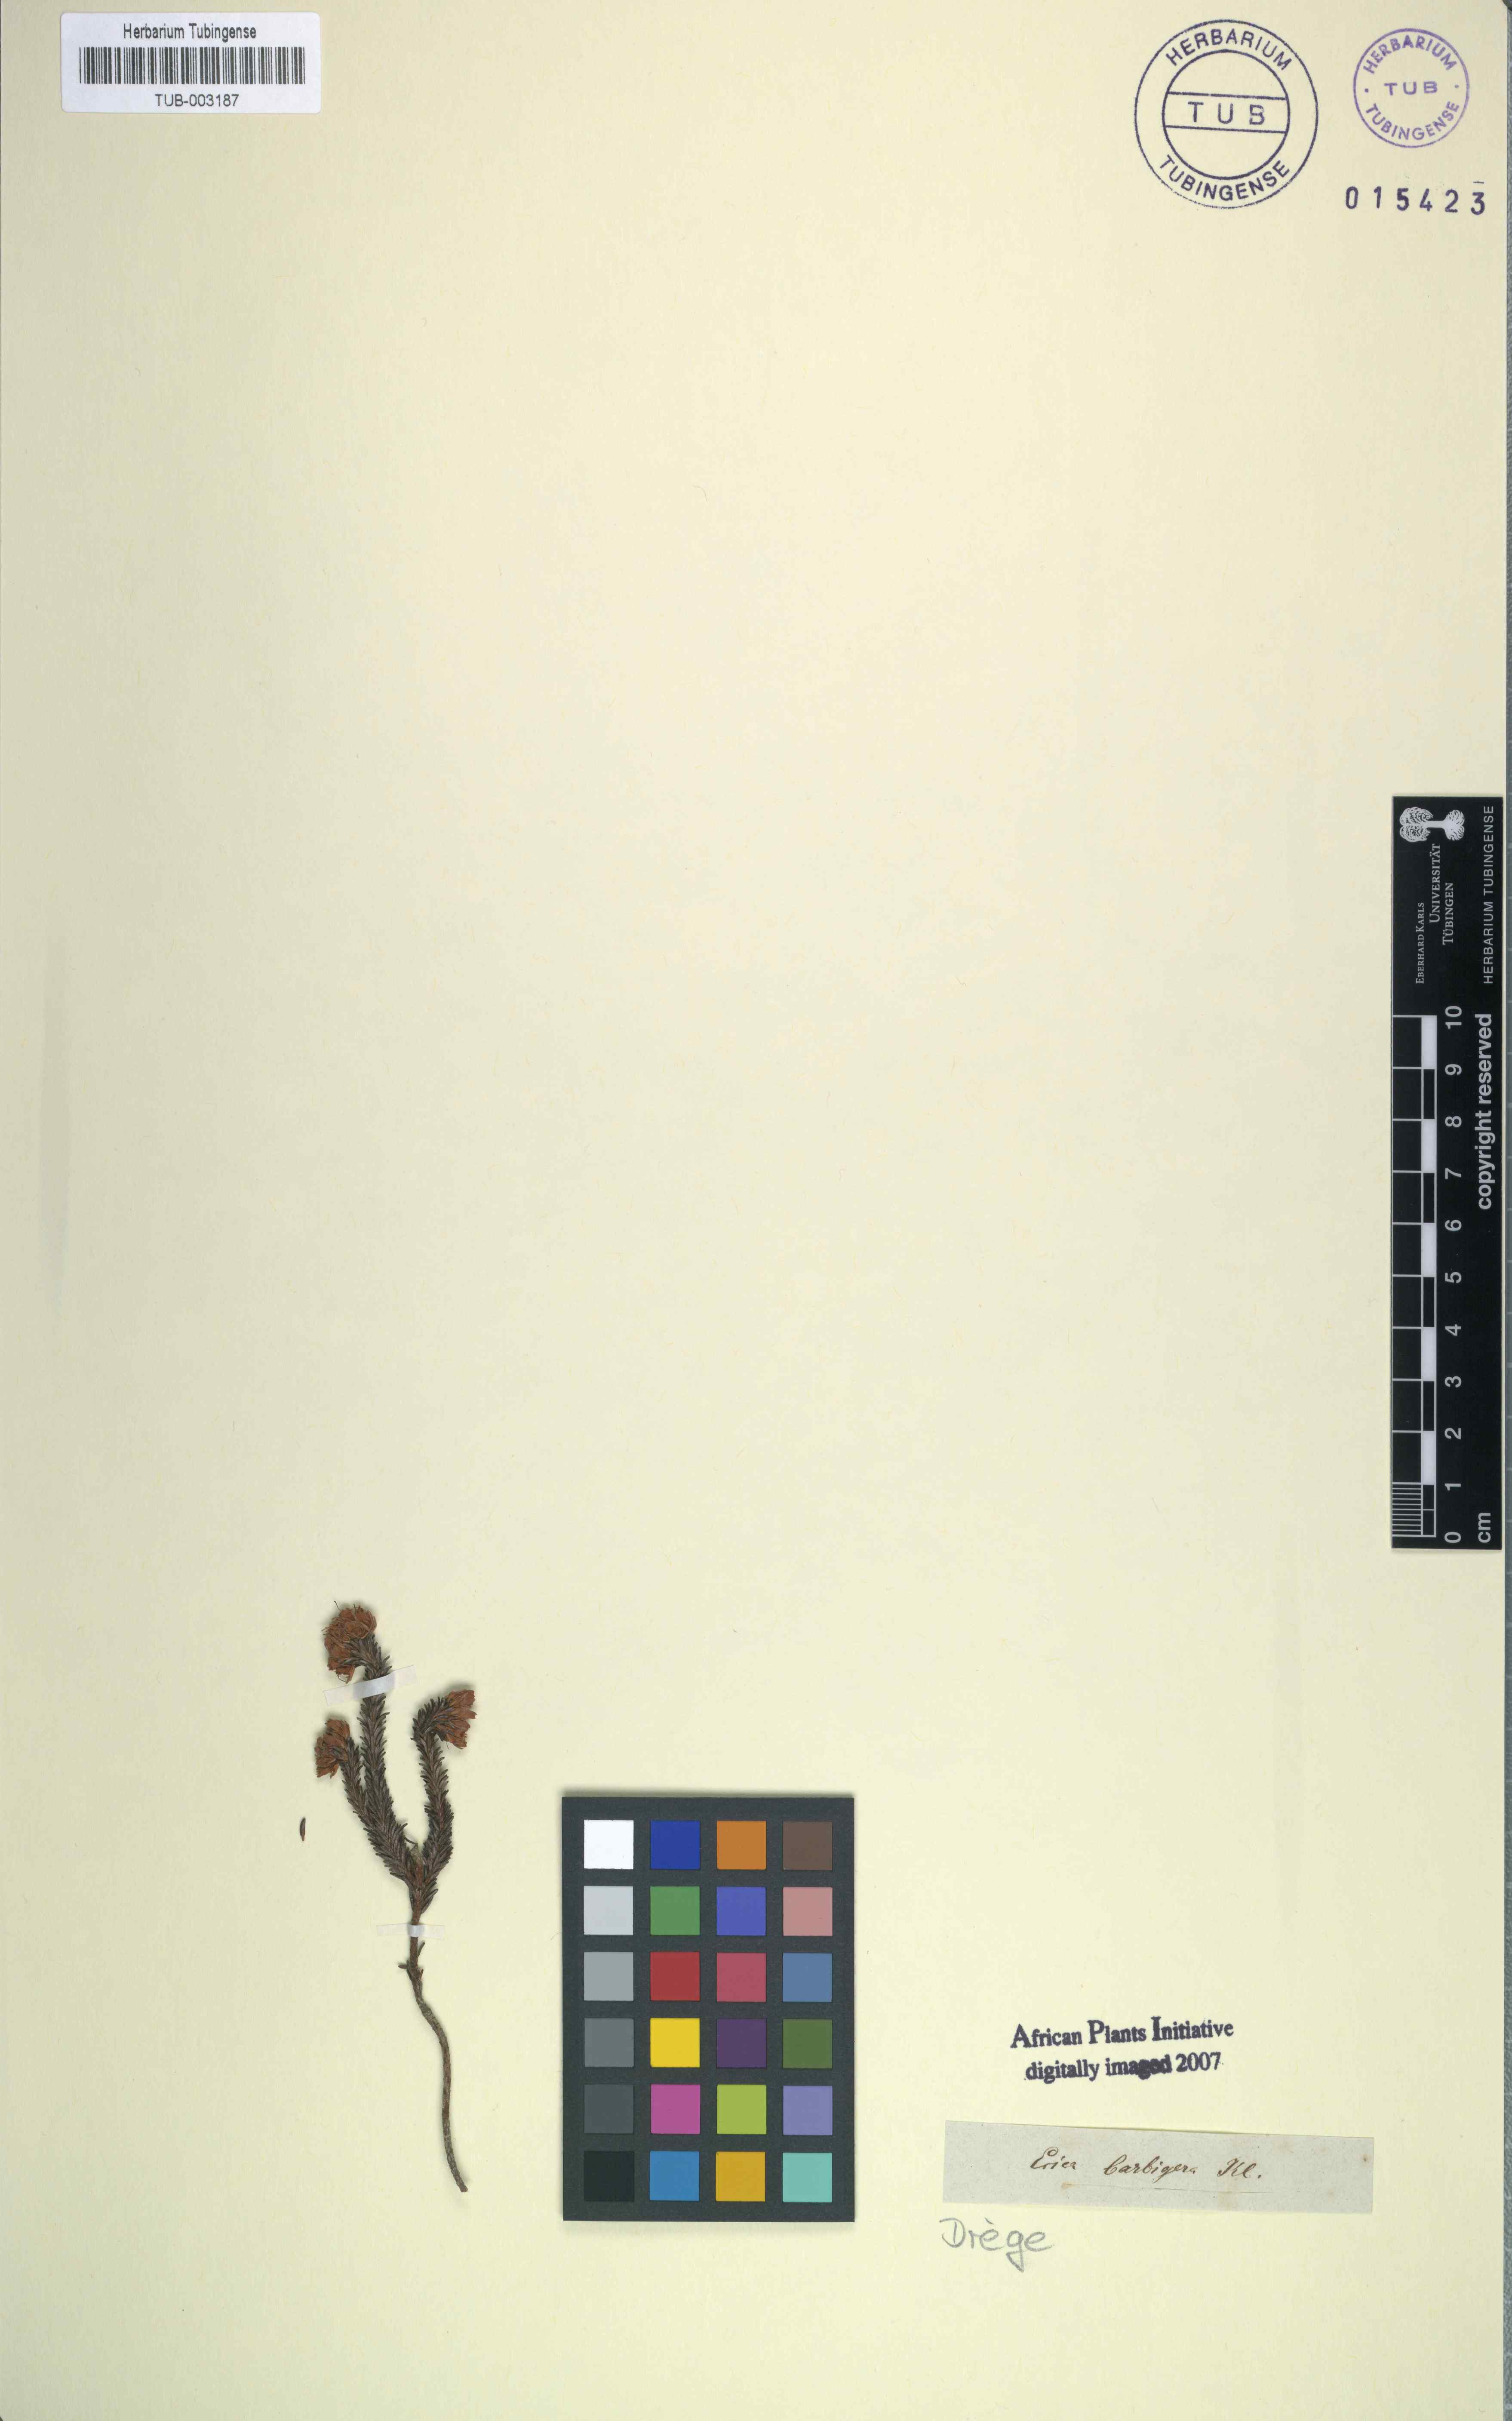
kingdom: Plantae
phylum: Tracheophyta
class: Magnoliopsida
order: Ericales
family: Ericaceae
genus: Erica
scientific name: Erica bruniifolia
